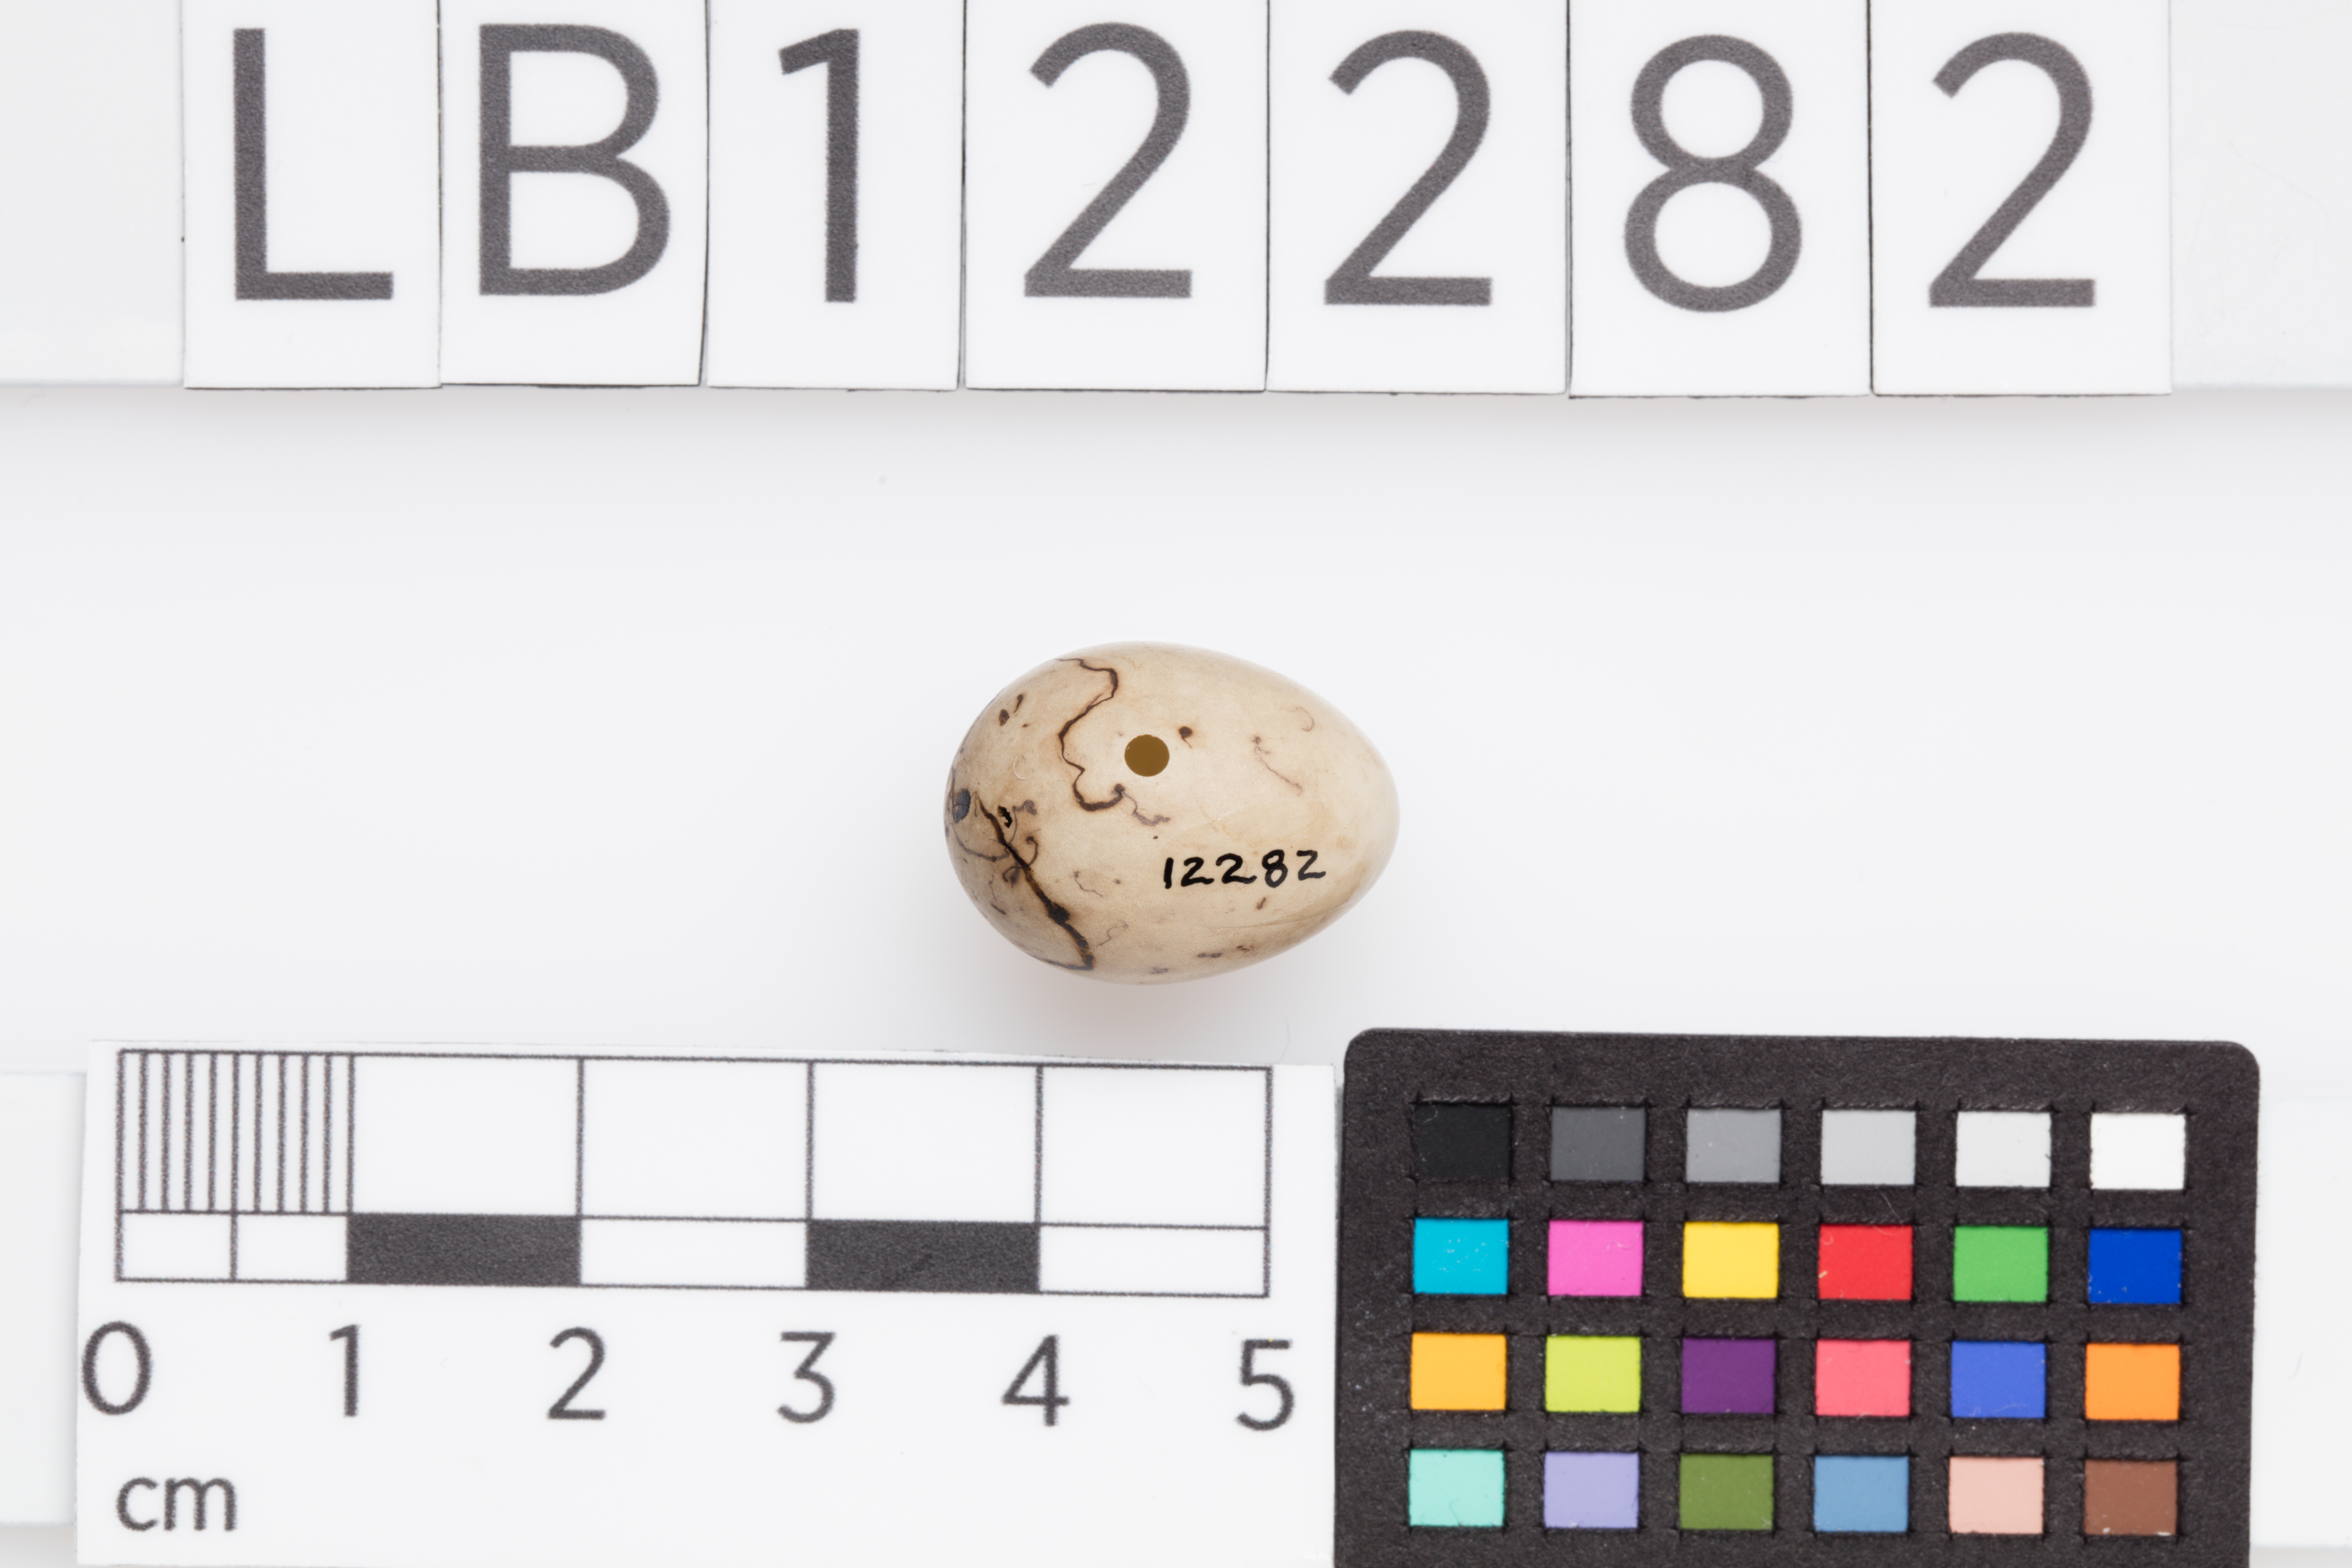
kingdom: Animalia
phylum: Chordata
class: Aves
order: Passeriformes
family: Emberizidae
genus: Emberiza
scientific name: Emberiza schoeniclus
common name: Reed bunting
